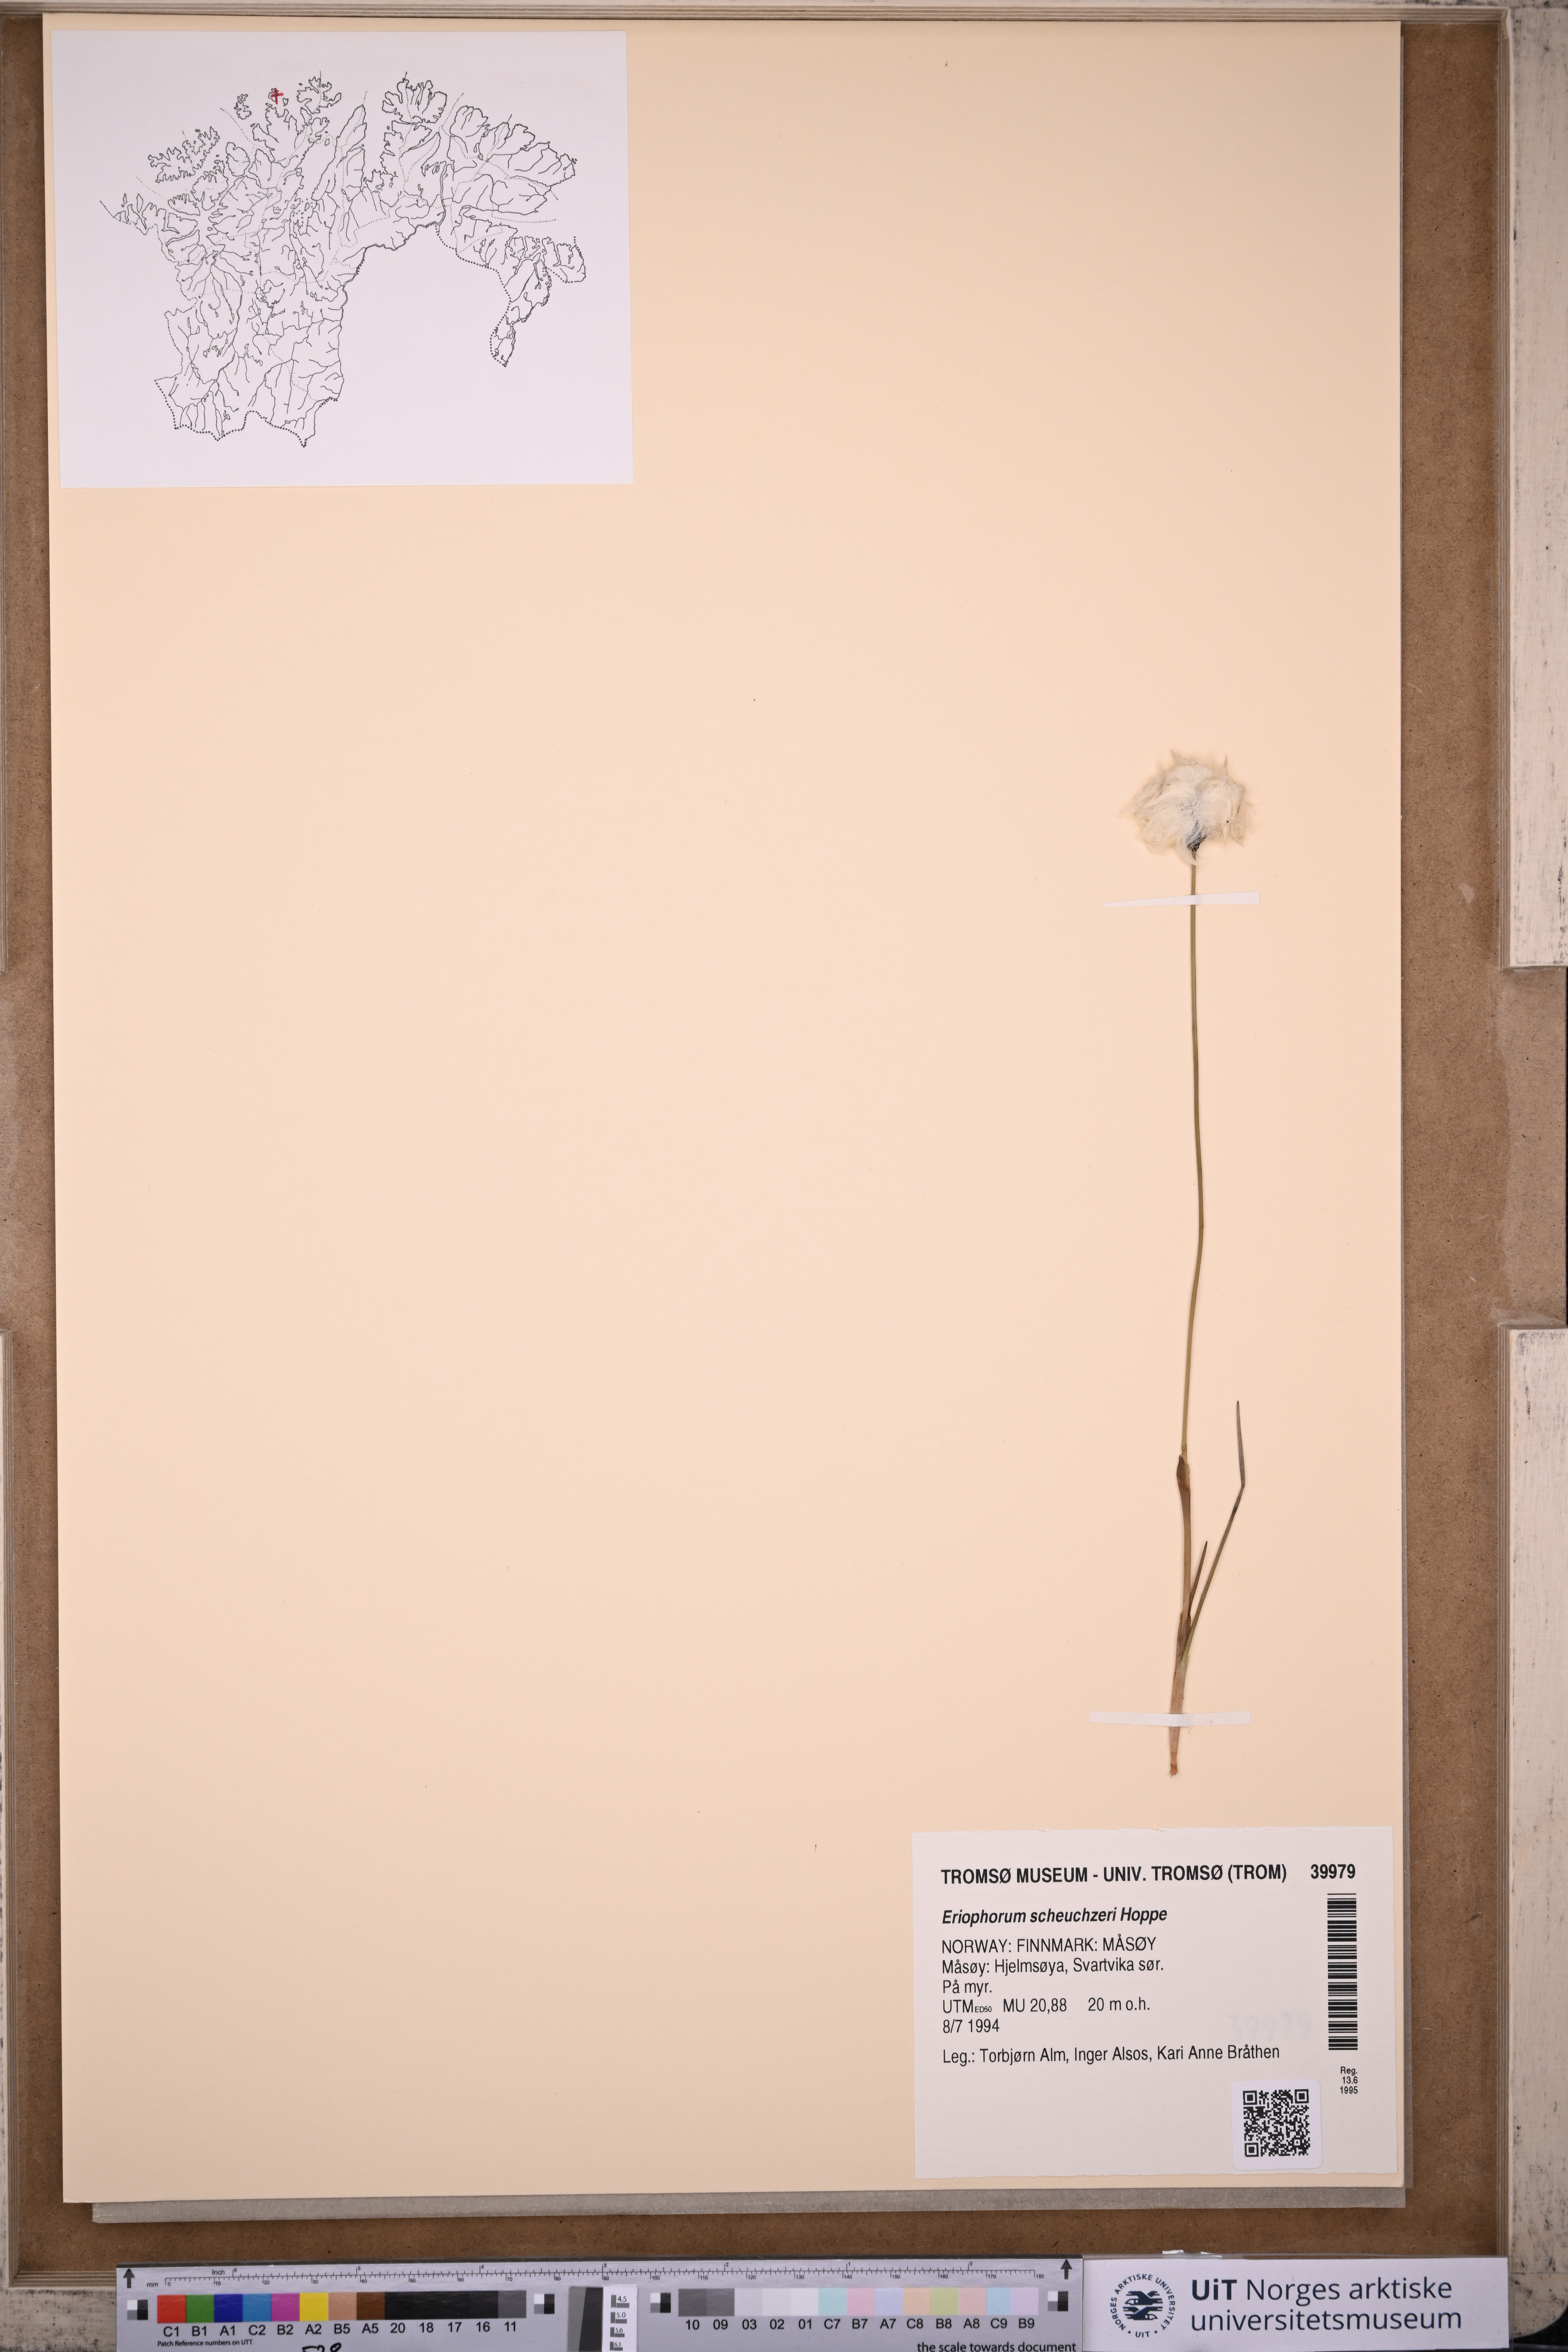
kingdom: Plantae
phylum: Tracheophyta
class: Liliopsida
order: Poales
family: Cyperaceae
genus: Eriophorum
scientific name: Eriophorum scheuchzeri
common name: Scheuchzer's cottongrass
